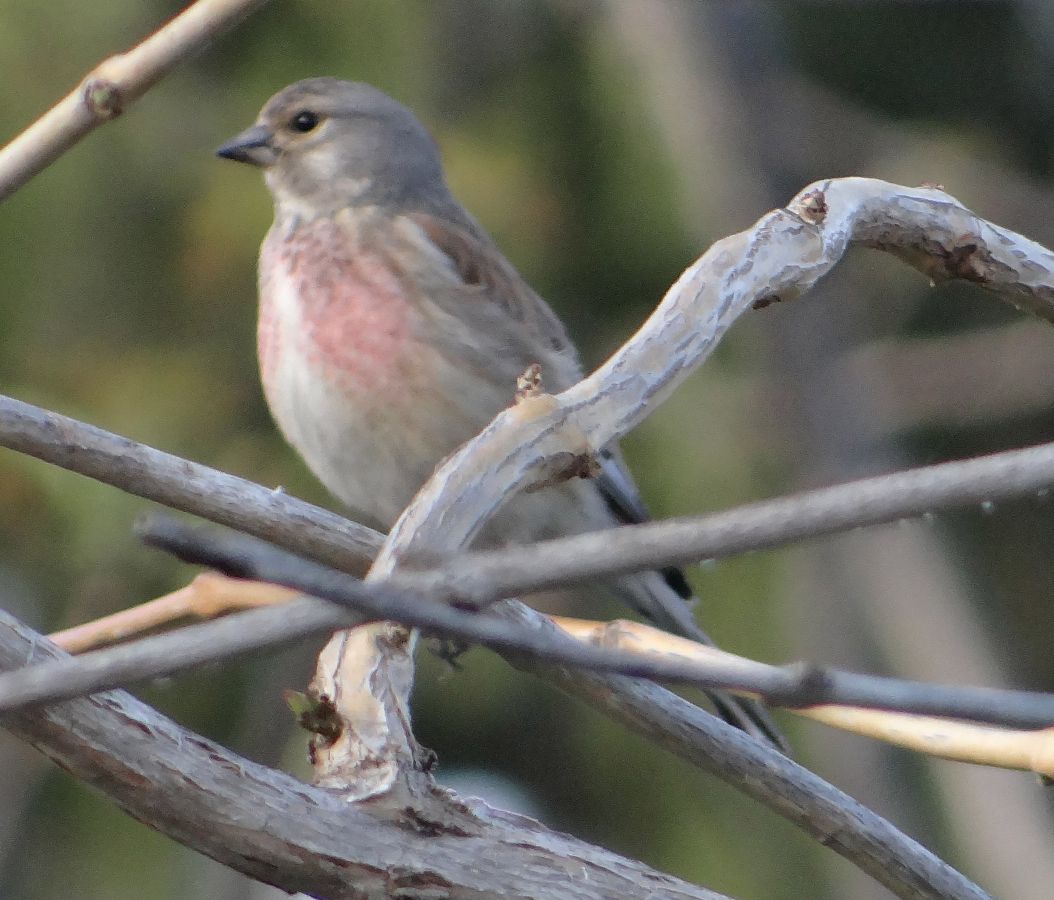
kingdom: Animalia
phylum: Chordata
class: Aves
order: Passeriformes
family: Fringillidae
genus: Linaria
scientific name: Linaria cannabina
